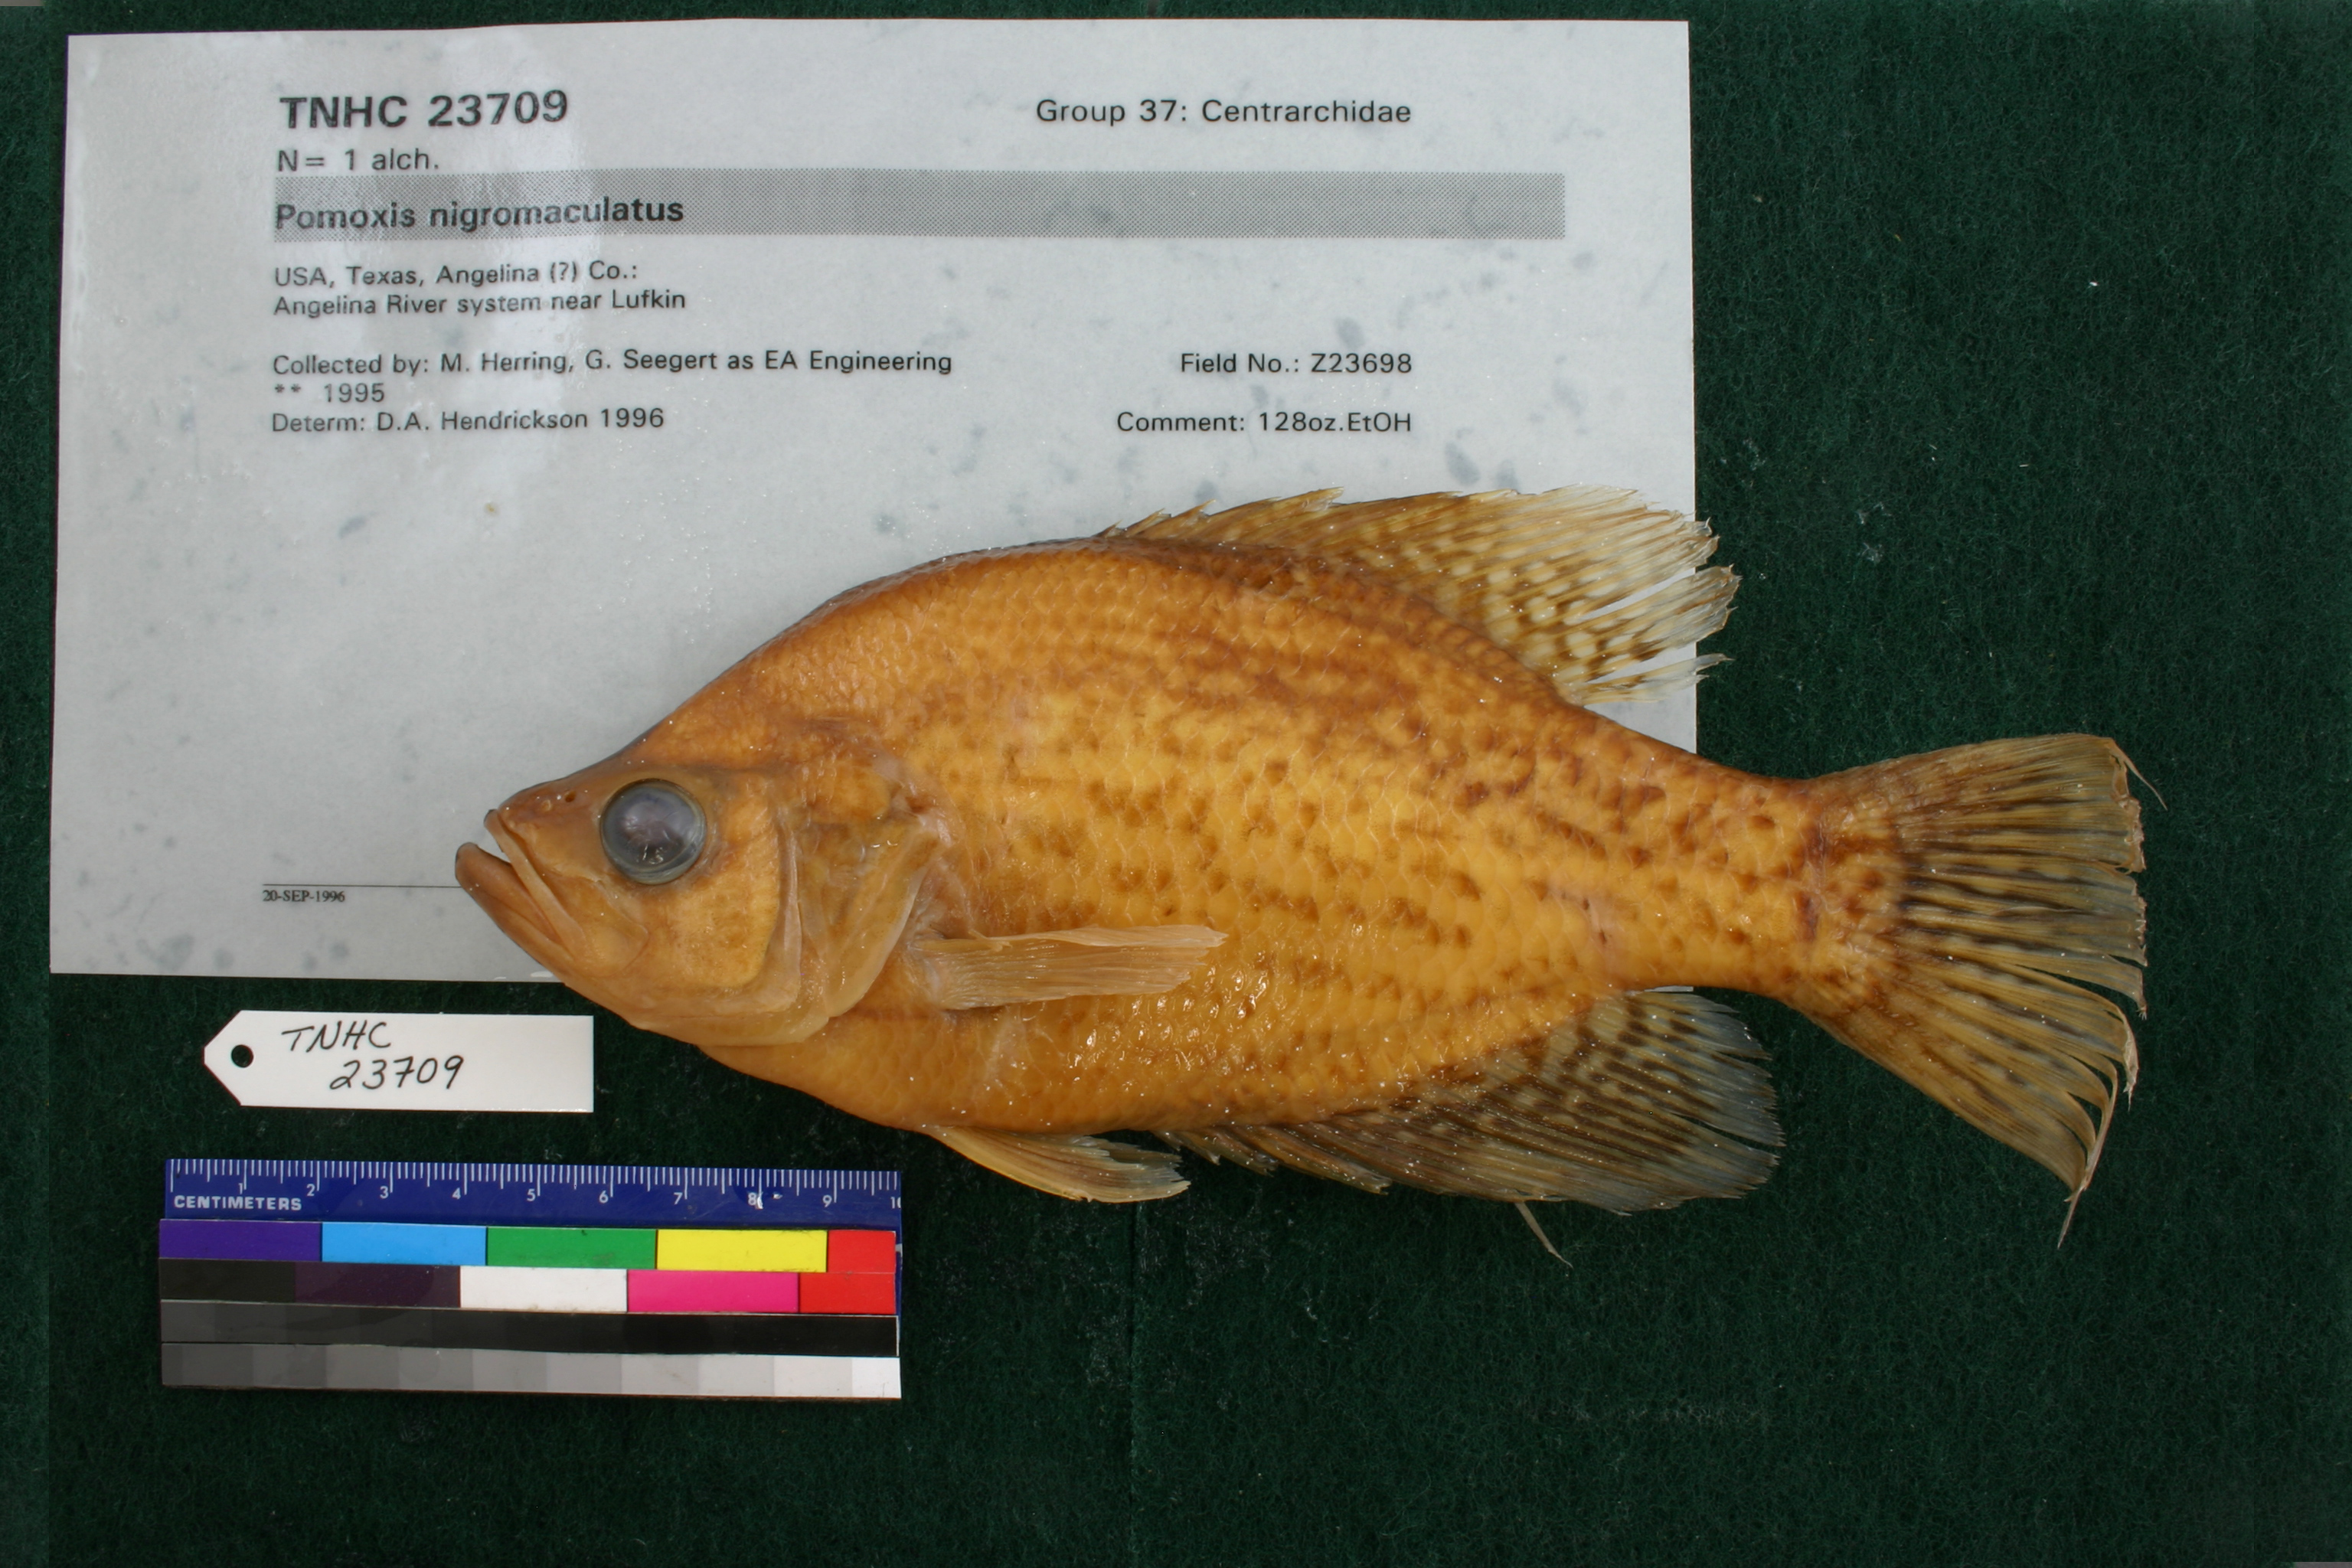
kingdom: Animalia
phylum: Chordata
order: Perciformes
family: Centrarchidae
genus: Pomoxis
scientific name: Pomoxis nigromaculatus
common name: Black crappie
